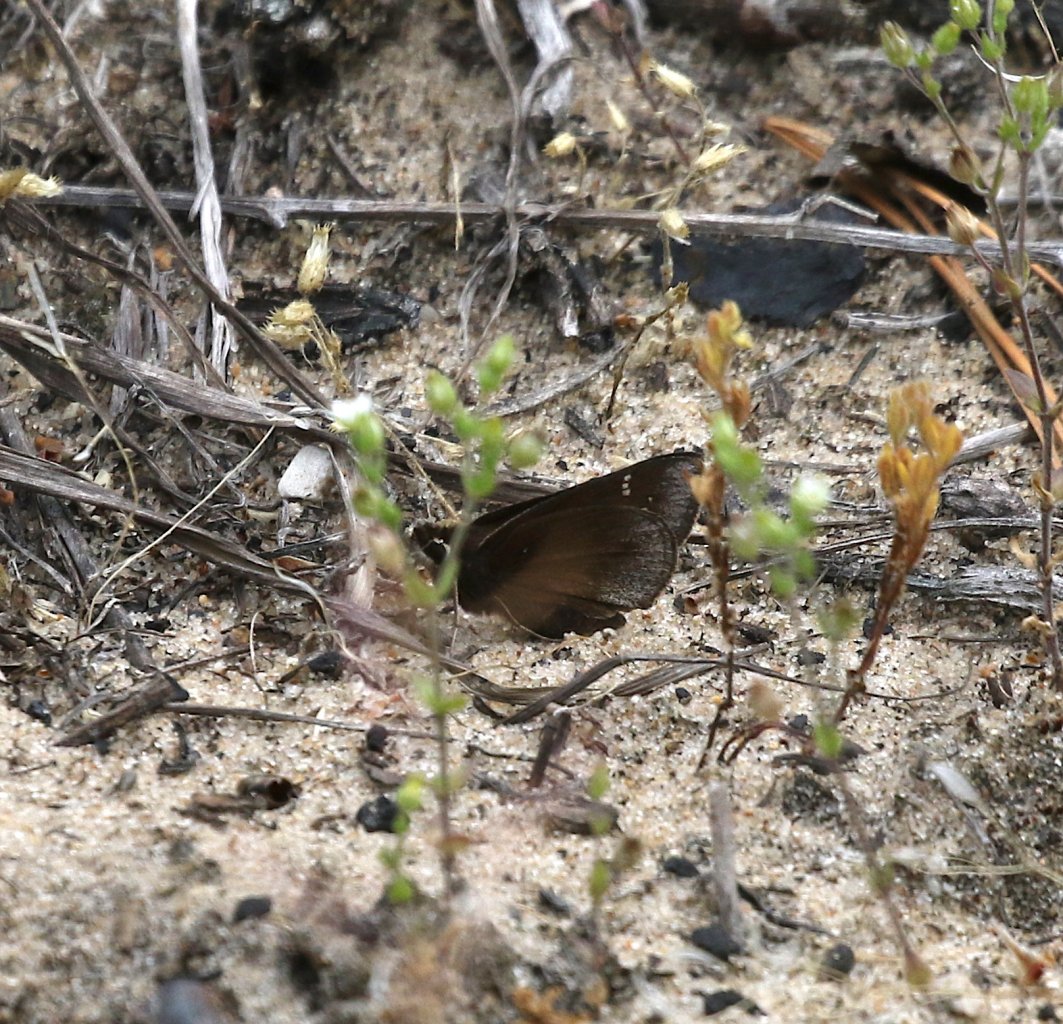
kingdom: Animalia
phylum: Arthropoda
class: Insecta
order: Lepidoptera
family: Hesperiidae
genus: Atrytonopsis
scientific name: Atrytonopsis hianna
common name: Dusted Skipper
